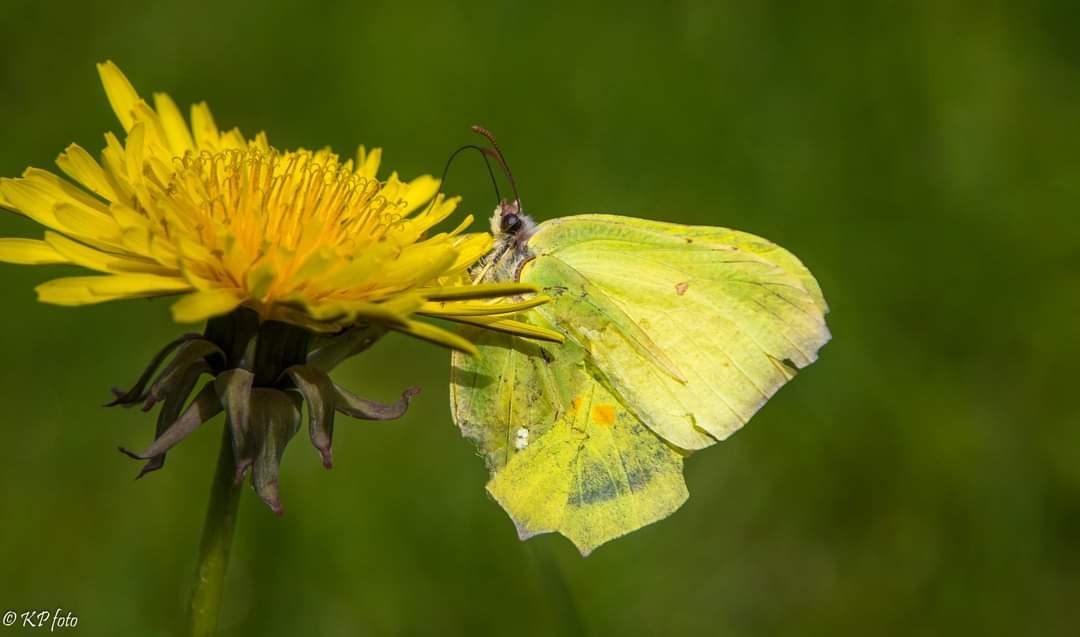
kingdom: Animalia
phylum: Arthropoda
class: Insecta
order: Lepidoptera
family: Pieridae
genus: Gonepteryx
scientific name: Gonepteryx rhamni
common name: Citronsommerfugl
